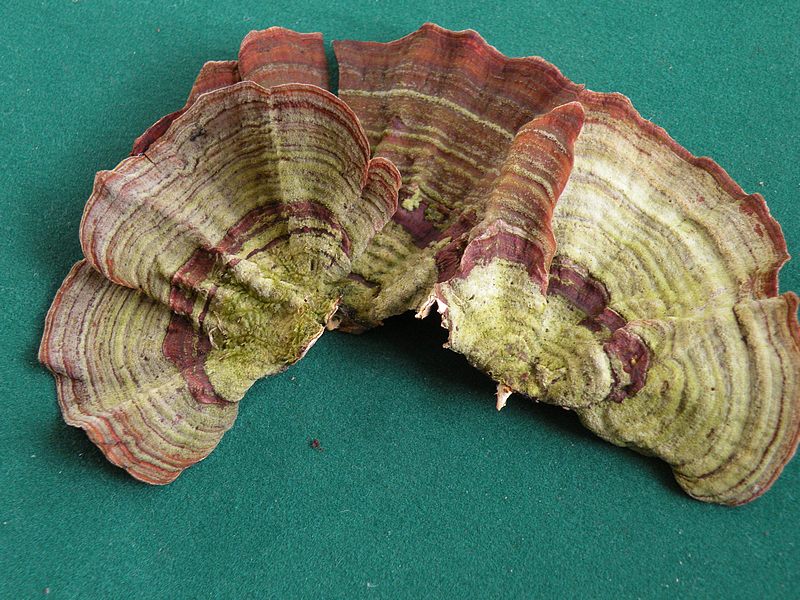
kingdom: Fungi
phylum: Basidiomycota
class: Agaricomycetes
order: Russulales
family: Stereaceae
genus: Stereum
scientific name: Stereum subtomentosum
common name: smuk lædersvamp
